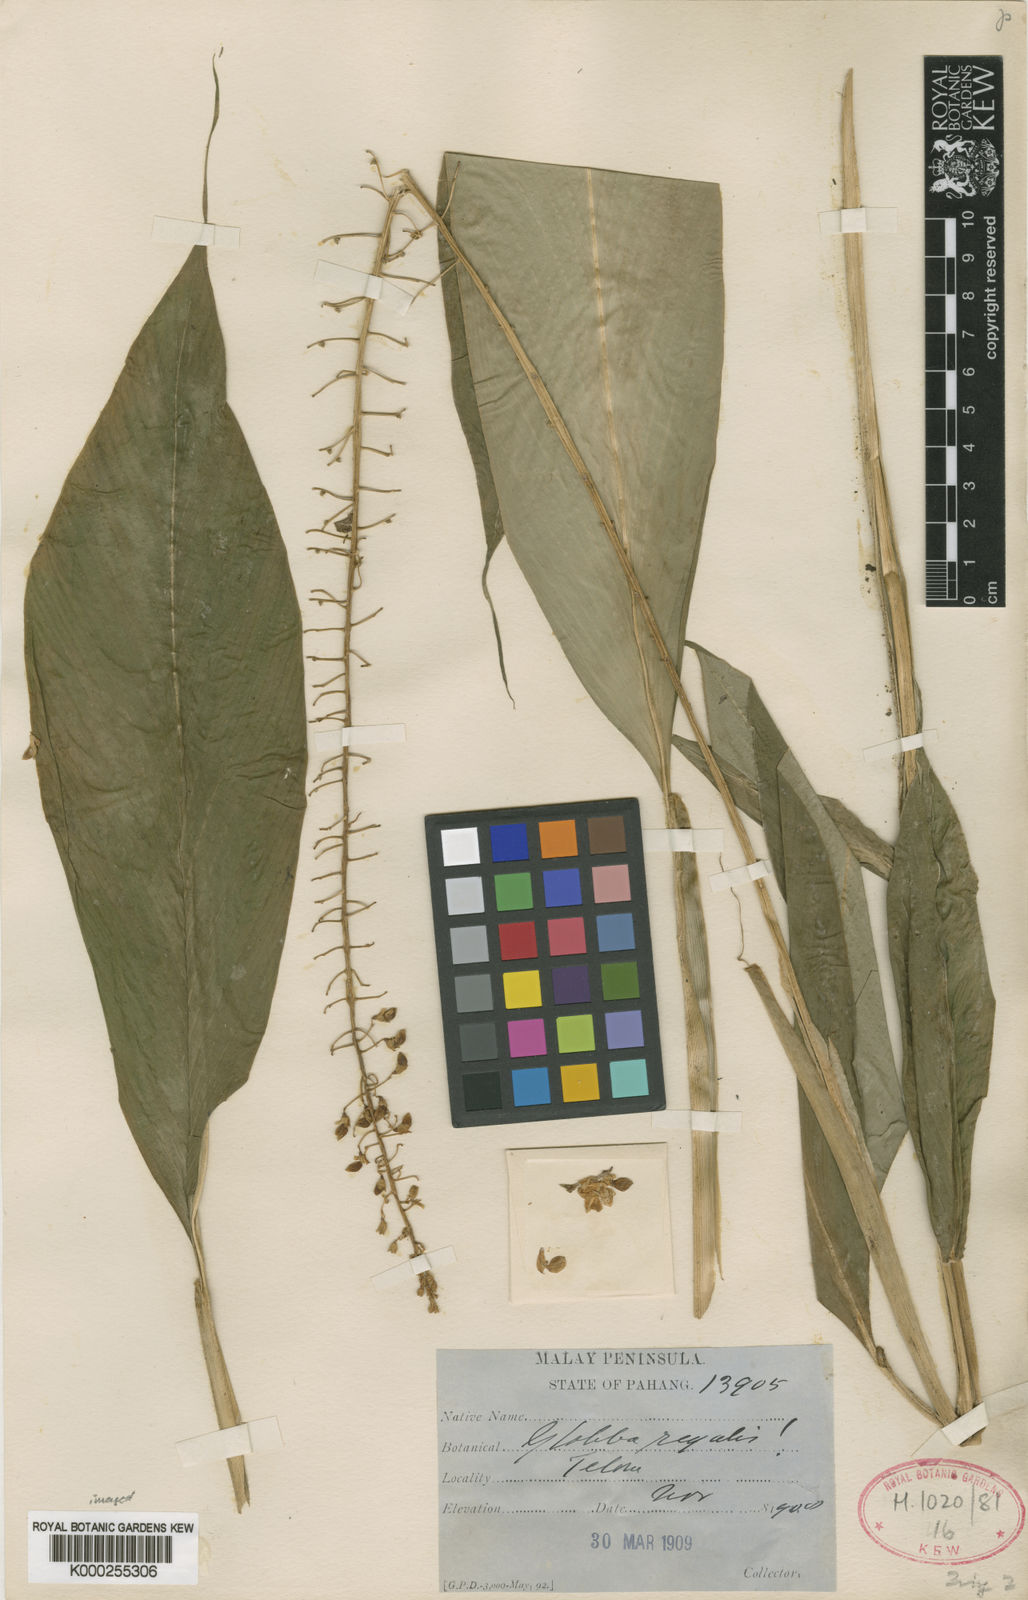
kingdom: Plantae
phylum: Tracheophyta
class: Liliopsida
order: Zingiberales
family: Zingiberaceae
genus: Globba
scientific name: Globba leucantha
